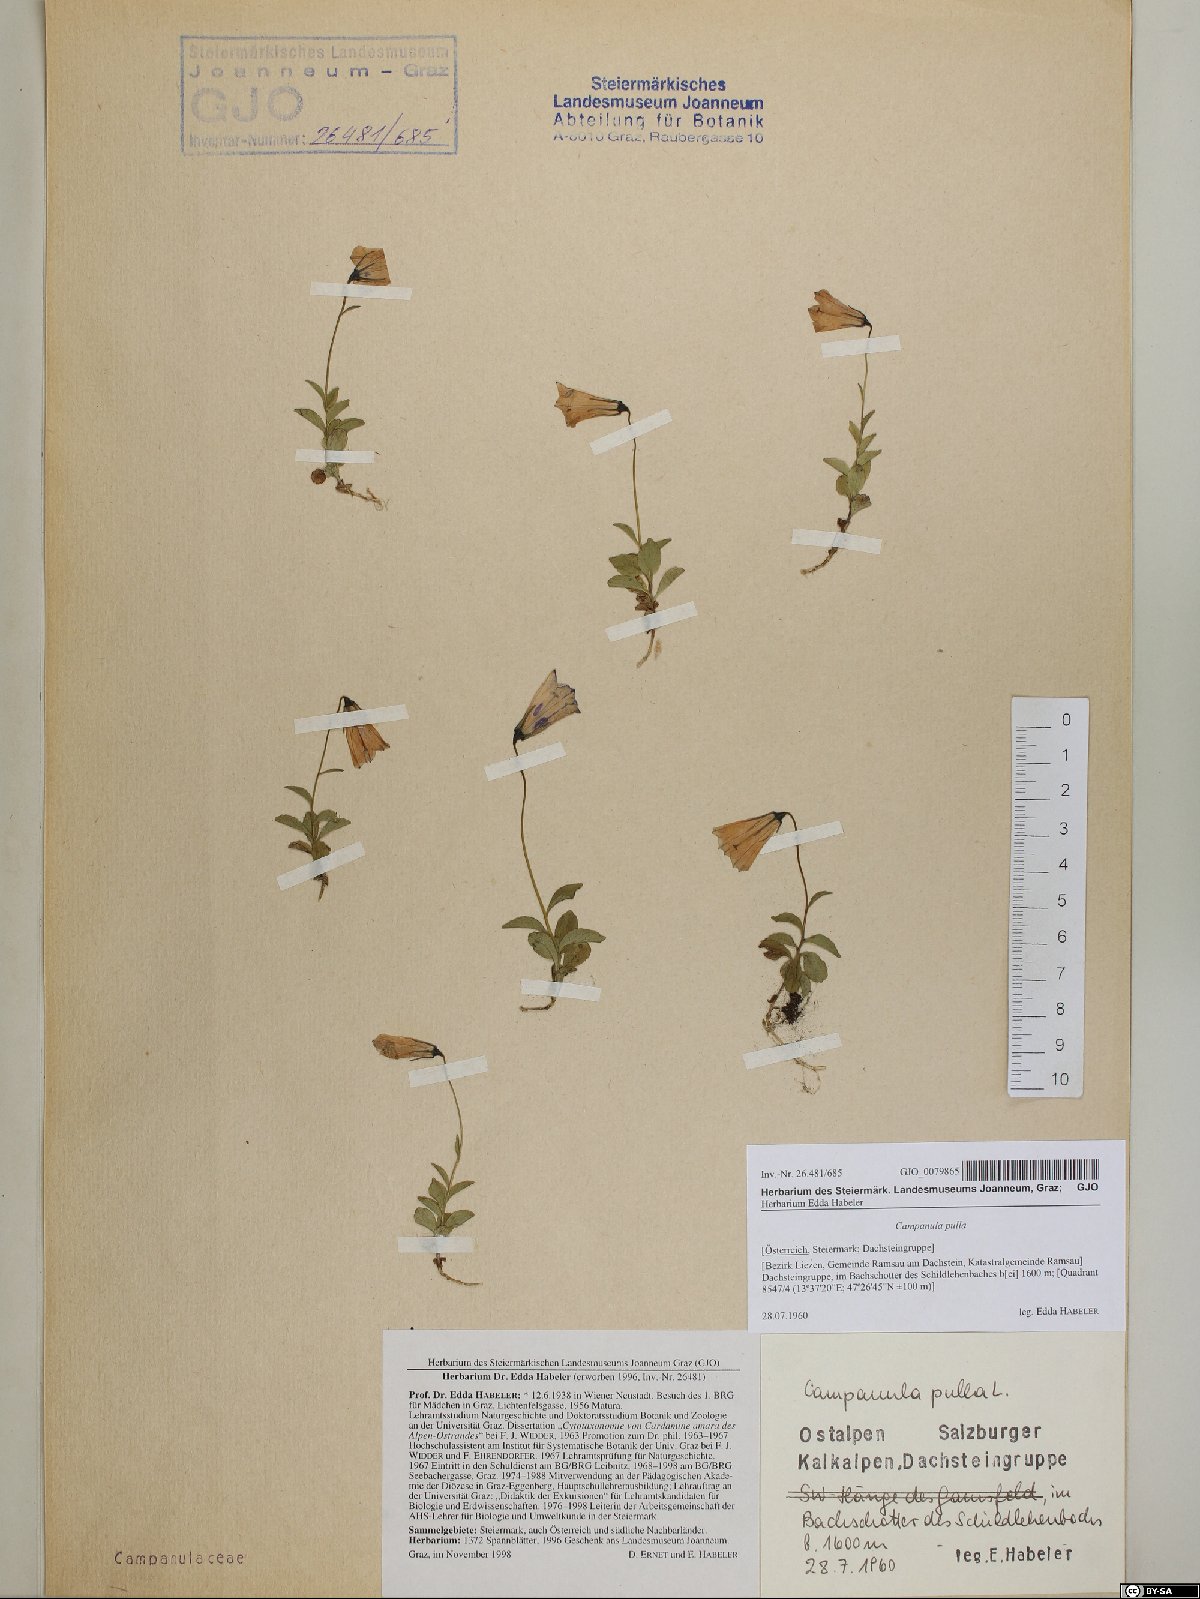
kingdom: Plantae
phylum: Tracheophyta
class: Magnoliopsida
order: Asterales
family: Campanulaceae
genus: Campanula
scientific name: Campanula pulla
